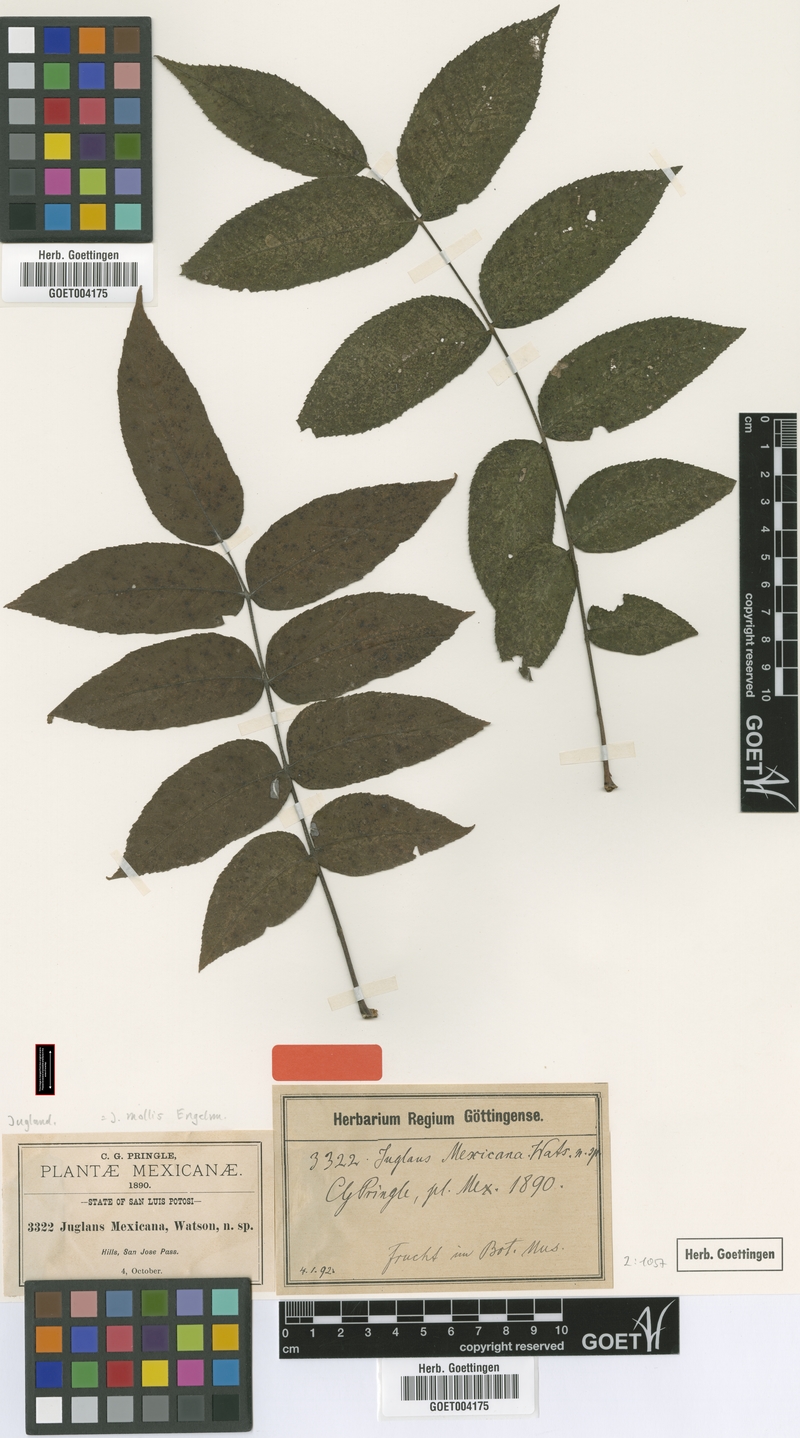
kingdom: Plantae
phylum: Tracheophyta
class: Magnoliopsida
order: Fagales
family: Juglandaceae
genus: Juglans
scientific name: Juglans mollis
